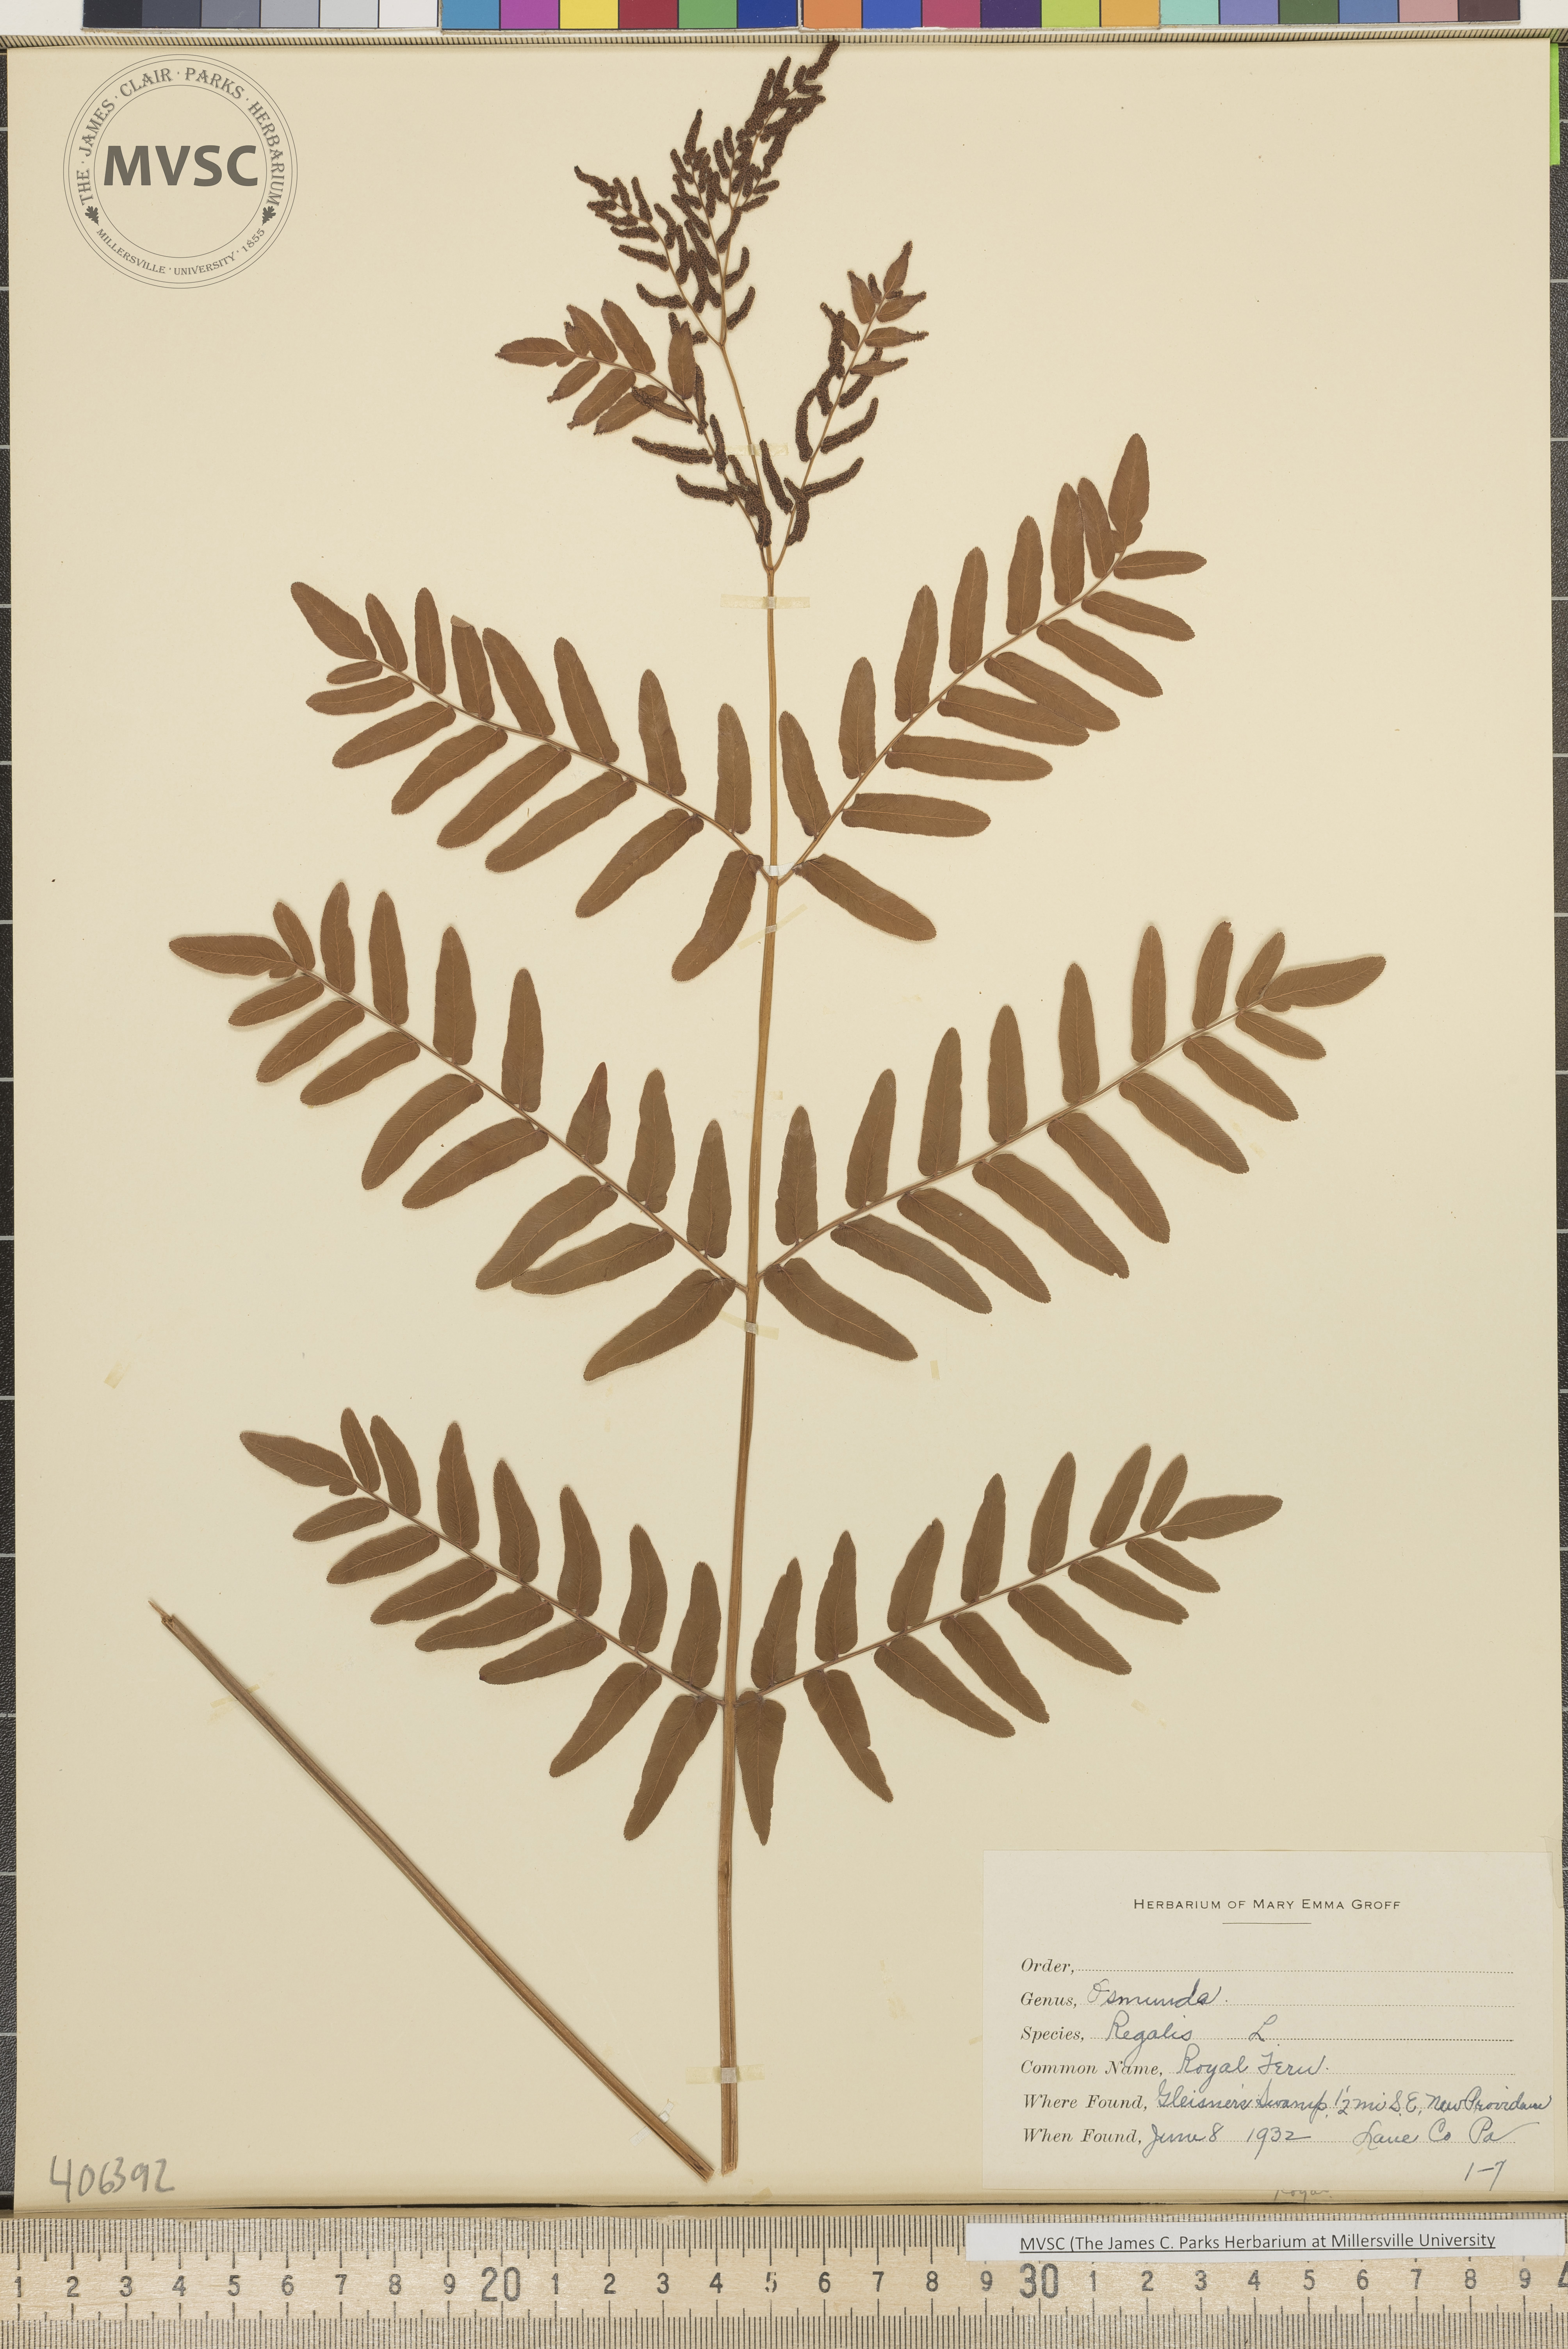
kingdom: Plantae
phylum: Tracheophyta
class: Polypodiopsida
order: Osmundales
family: Osmundaceae
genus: Osmunda
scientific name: Osmunda regalis
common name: Royal Fern
